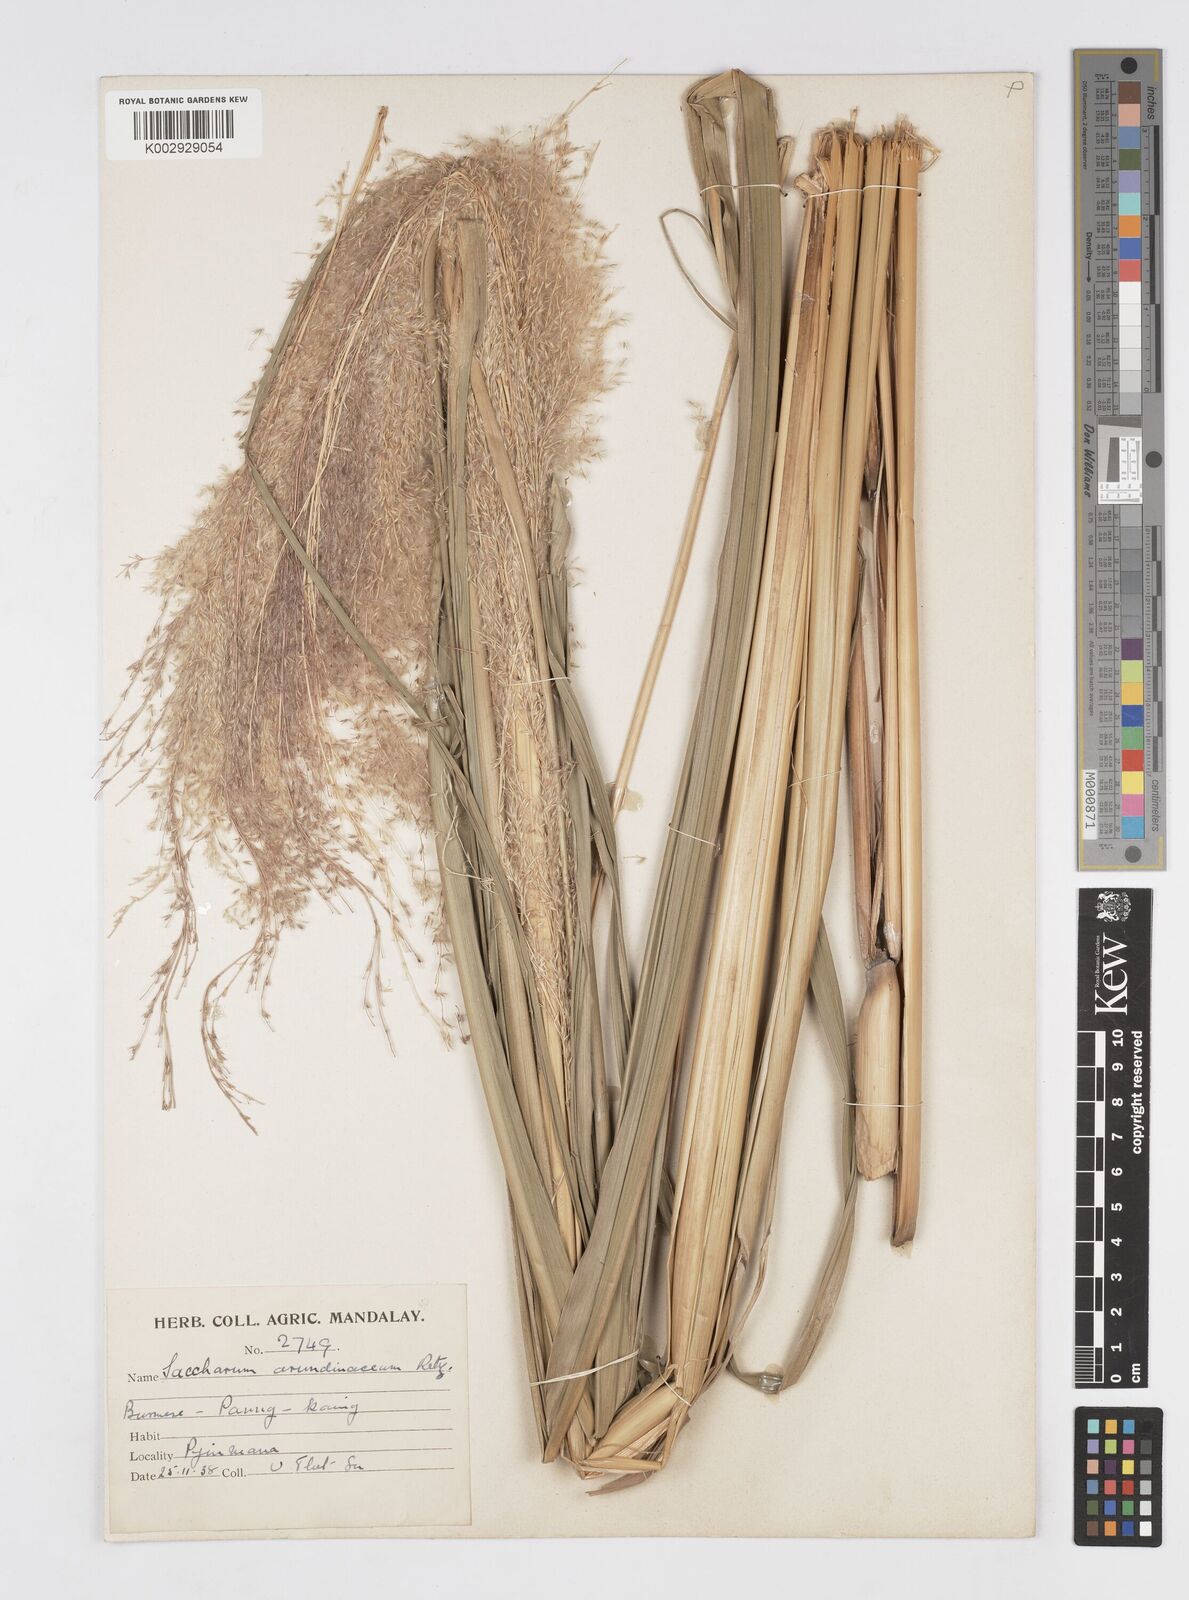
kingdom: Plantae
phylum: Tracheophyta
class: Liliopsida
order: Poales
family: Poaceae
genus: Saccharum
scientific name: Saccharum spontaneum
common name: Wild sugarcane
